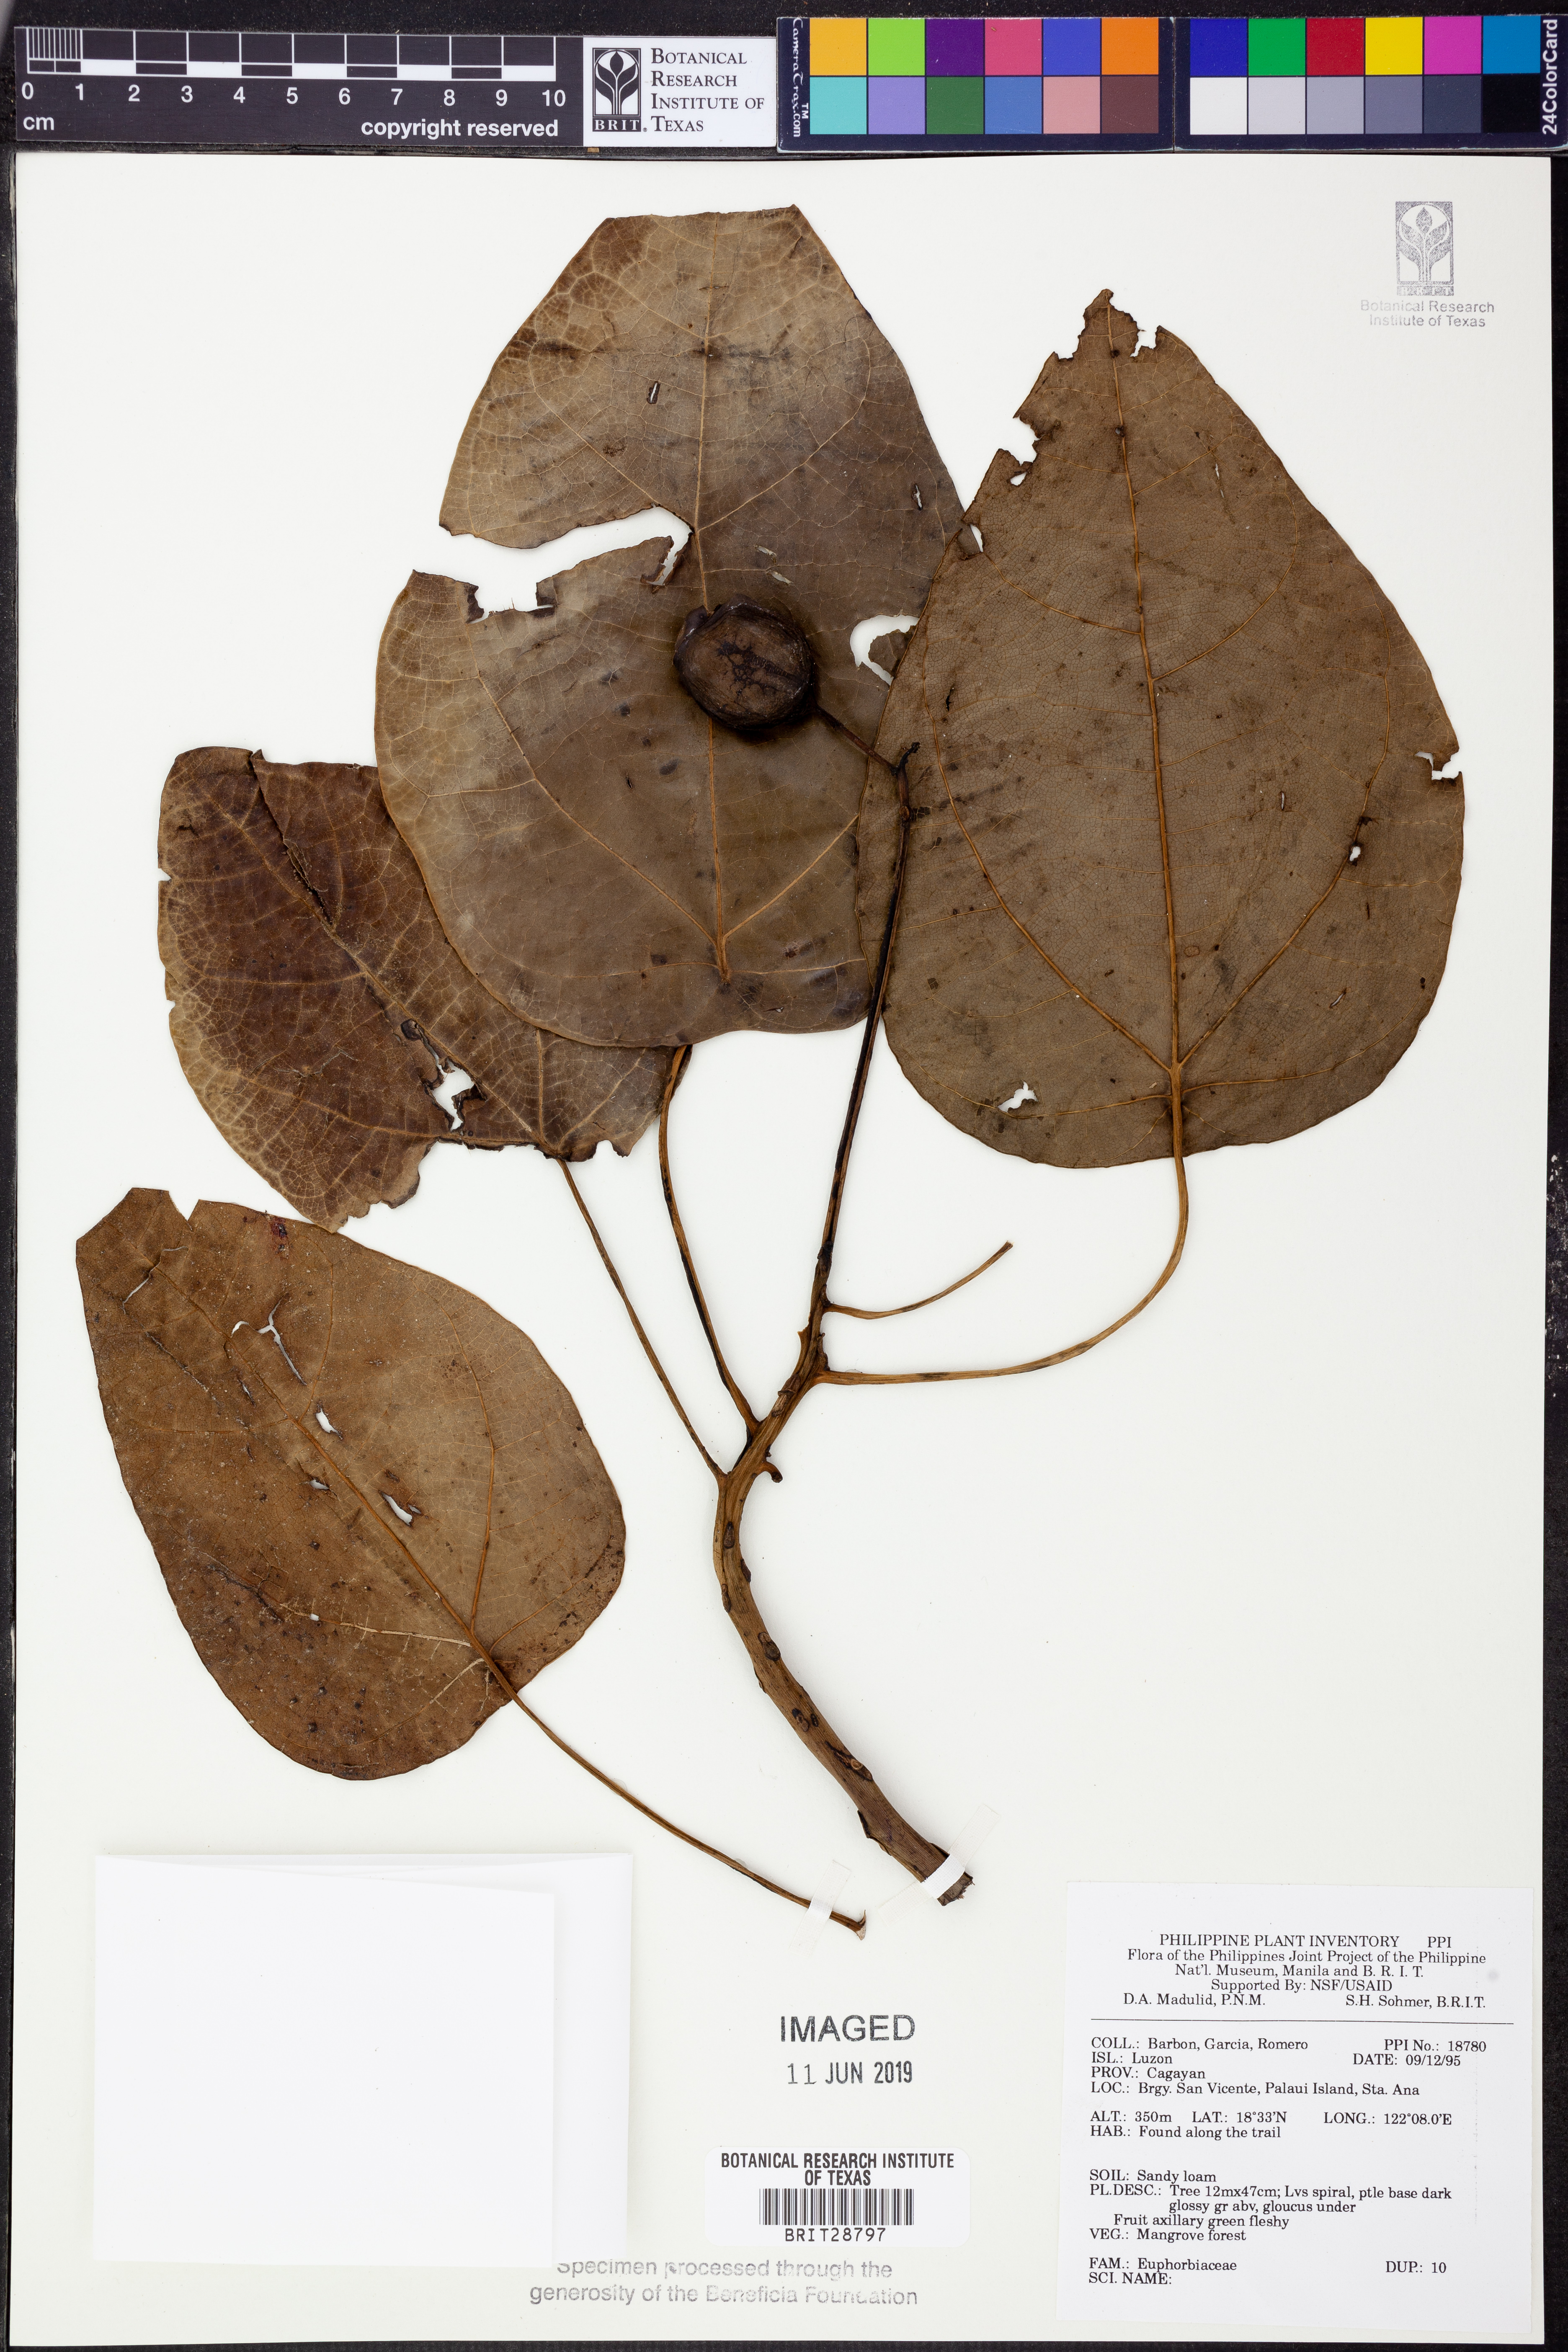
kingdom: Plantae
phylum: Tracheophyta
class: Magnoliopsida
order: Malpighiales
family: Euphorbiaceae
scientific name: Euphorbiaceae
